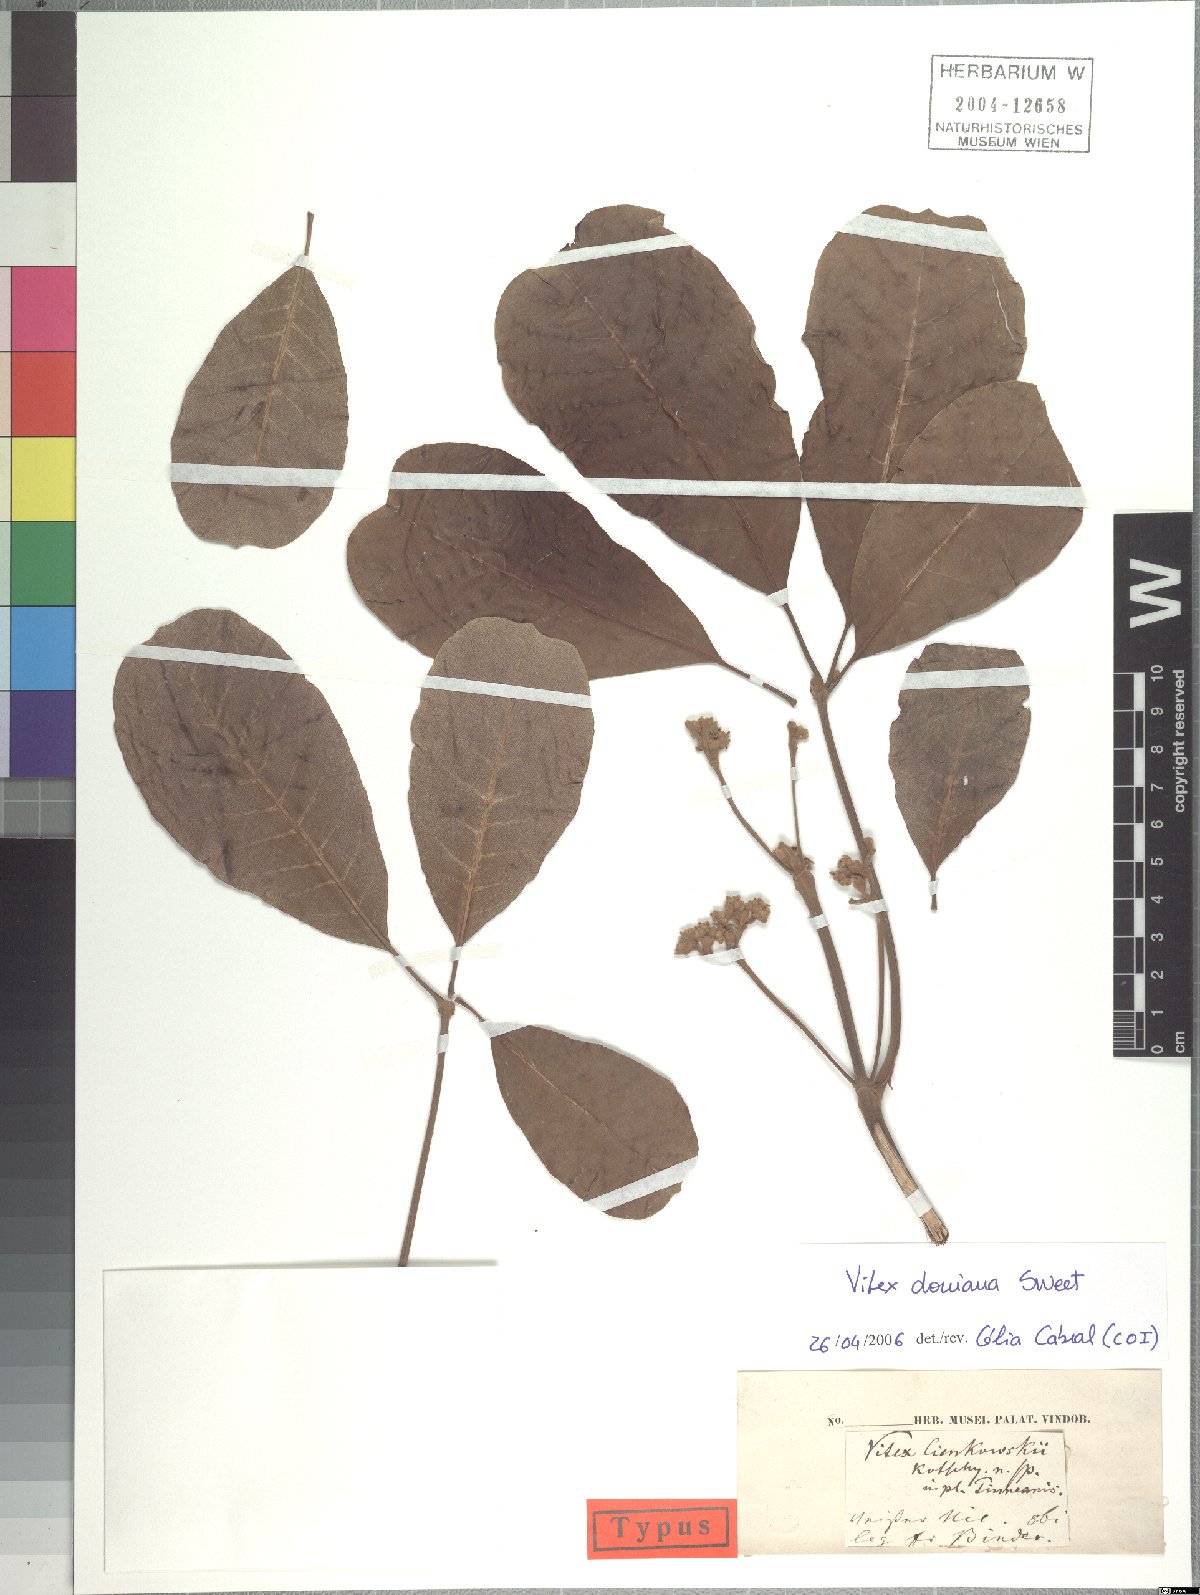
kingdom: Plantae
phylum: Tracheophyta
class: Magnoliopsida
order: Lamiales
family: Lamiaceae
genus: Vitex
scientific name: Vitex doniana
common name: Black plum
